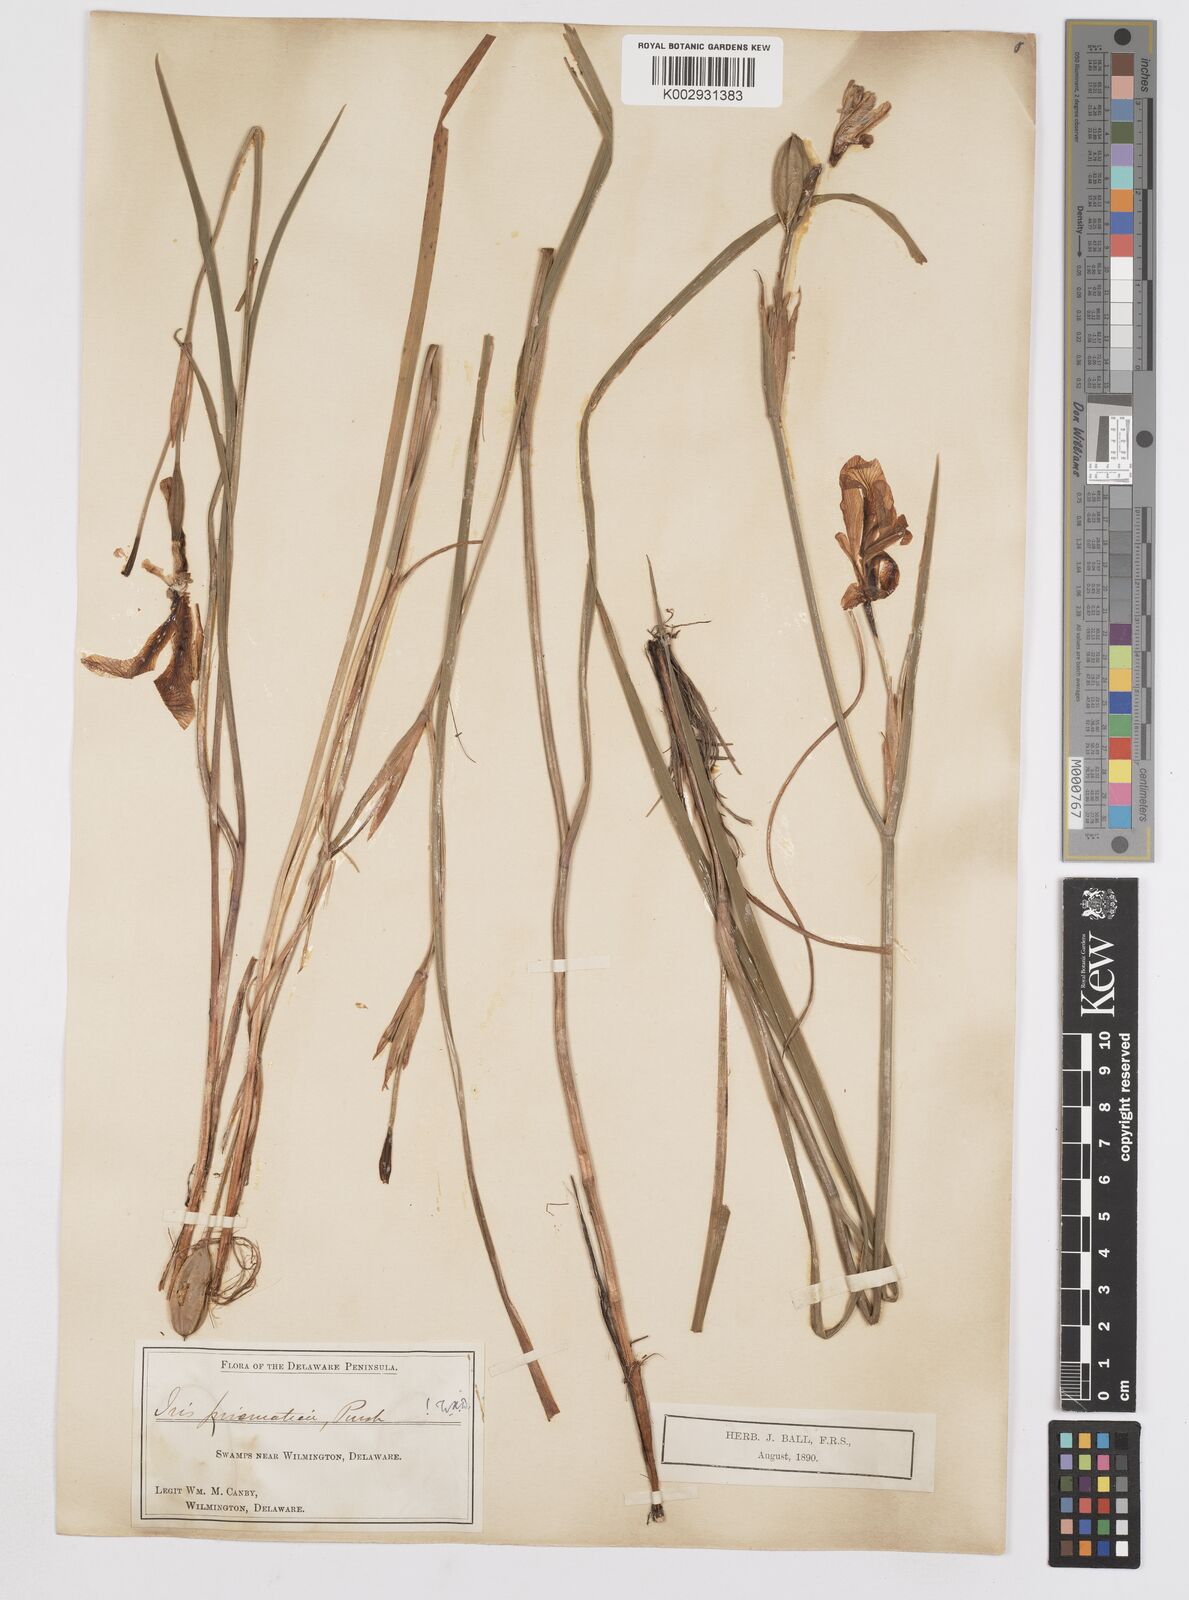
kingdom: Plantae
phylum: Tracheophyta
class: Liliopsida
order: Asparagales
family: Iridaceae
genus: Iris
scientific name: Iris prismatica
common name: Slender blue flag
